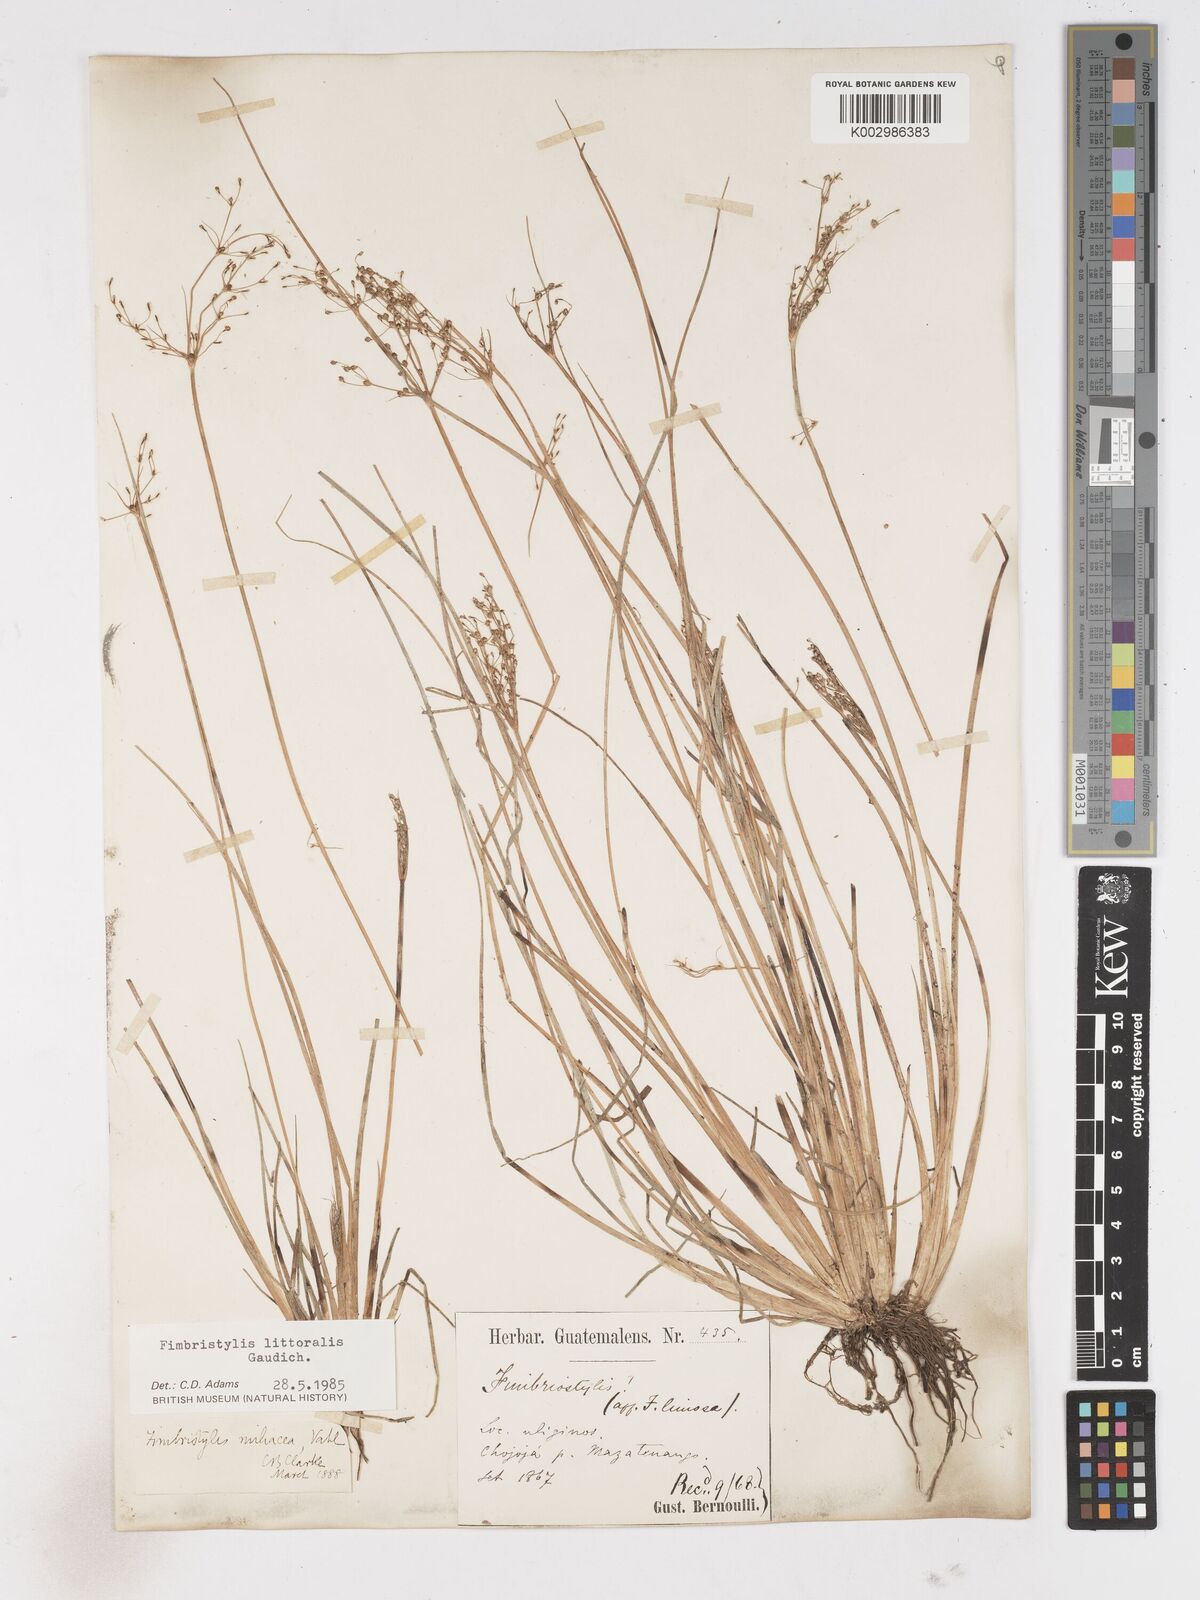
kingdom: Plantae
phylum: Tracheophyta
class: Liliopsida
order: Poales
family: Cyperaceae
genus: Fimbristylis
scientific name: Fimbristylis littoralis
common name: Fimbry
